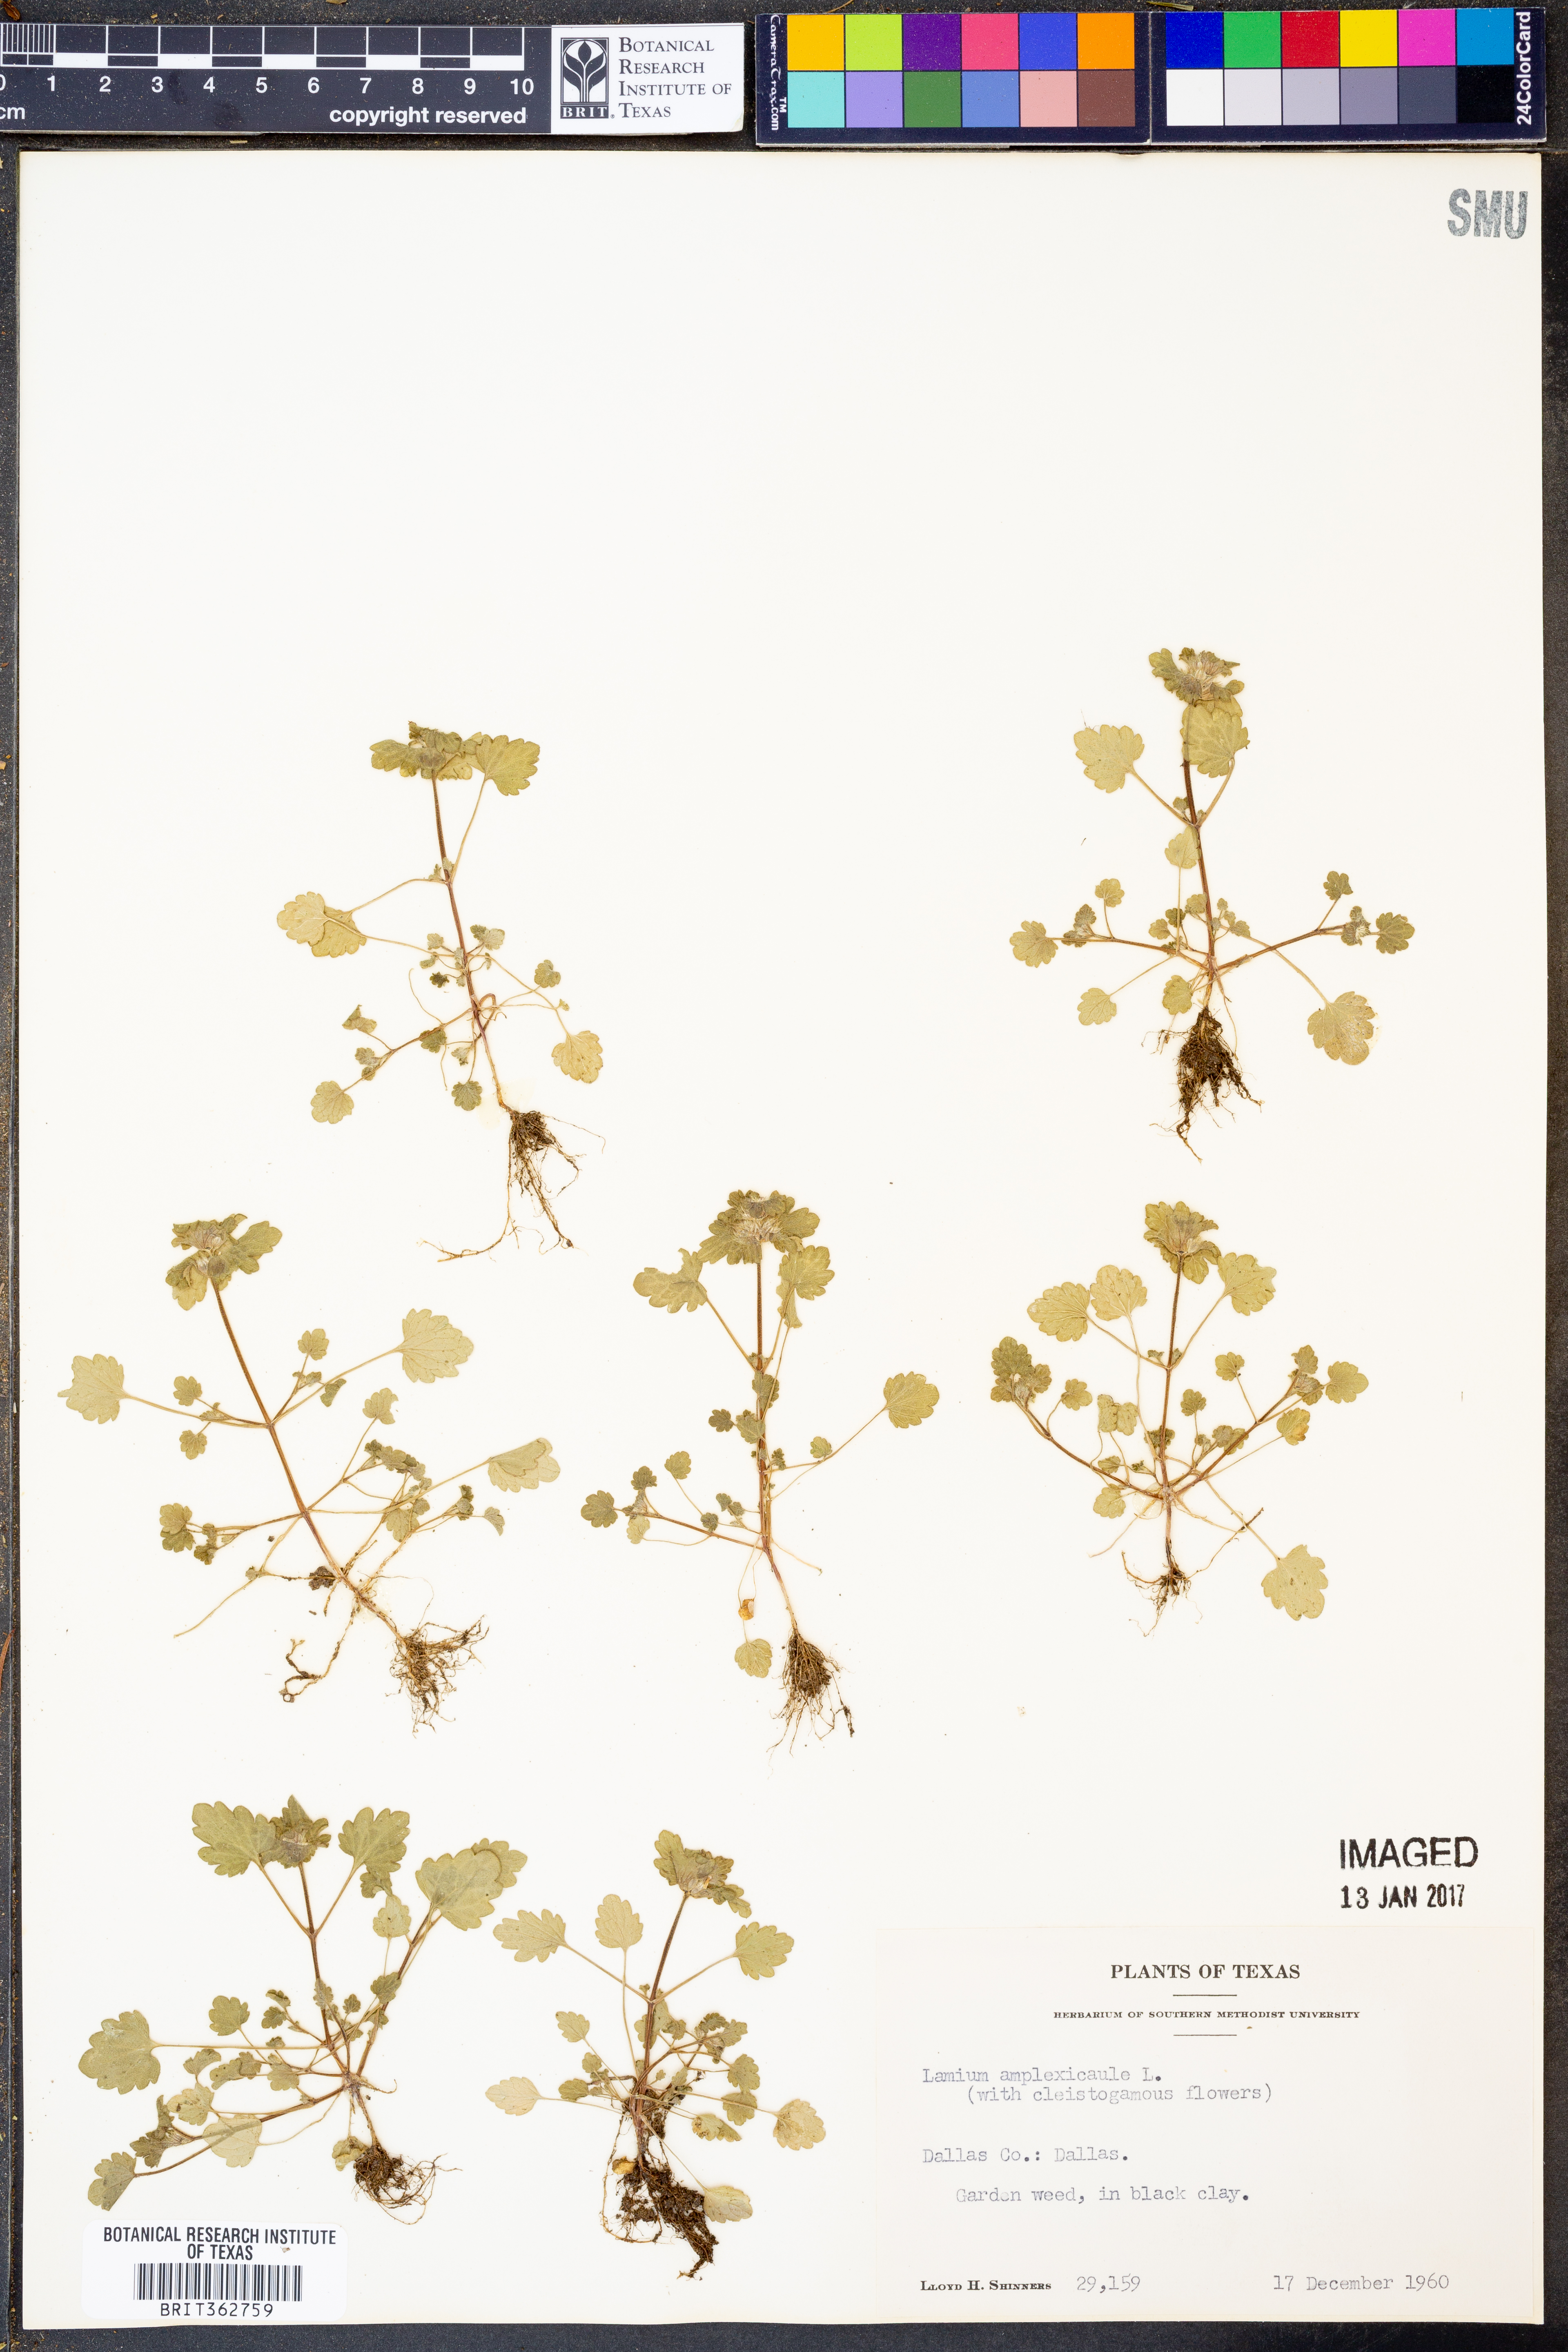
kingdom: Plantae
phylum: Tracheophyta
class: Magnoliopsida
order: Lamiales
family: Lamiaceae
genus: Lamium
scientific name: Lamium amplexicaule
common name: Henbit dead-nettle
